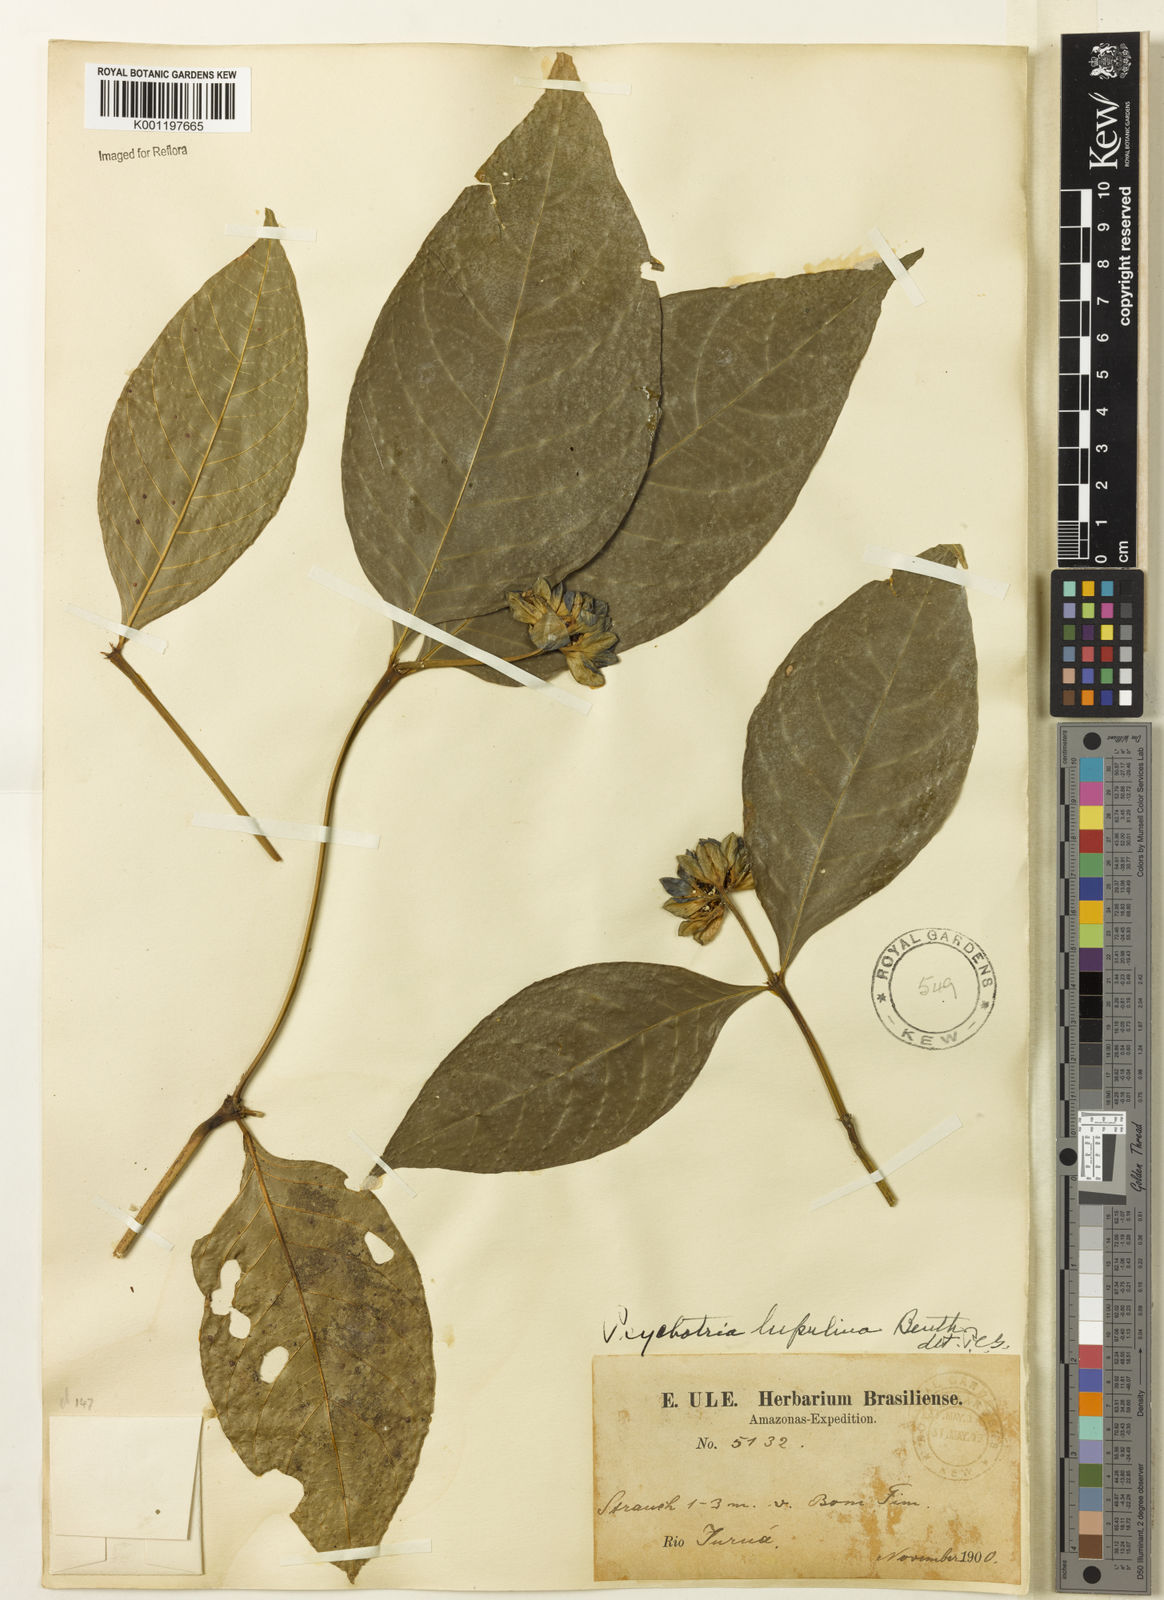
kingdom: Plantae
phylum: Tracheophyta
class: Magnoliopsida
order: Gentianales
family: Rubiaceae
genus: Palicourea
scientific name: Palicourea justiciifolia
